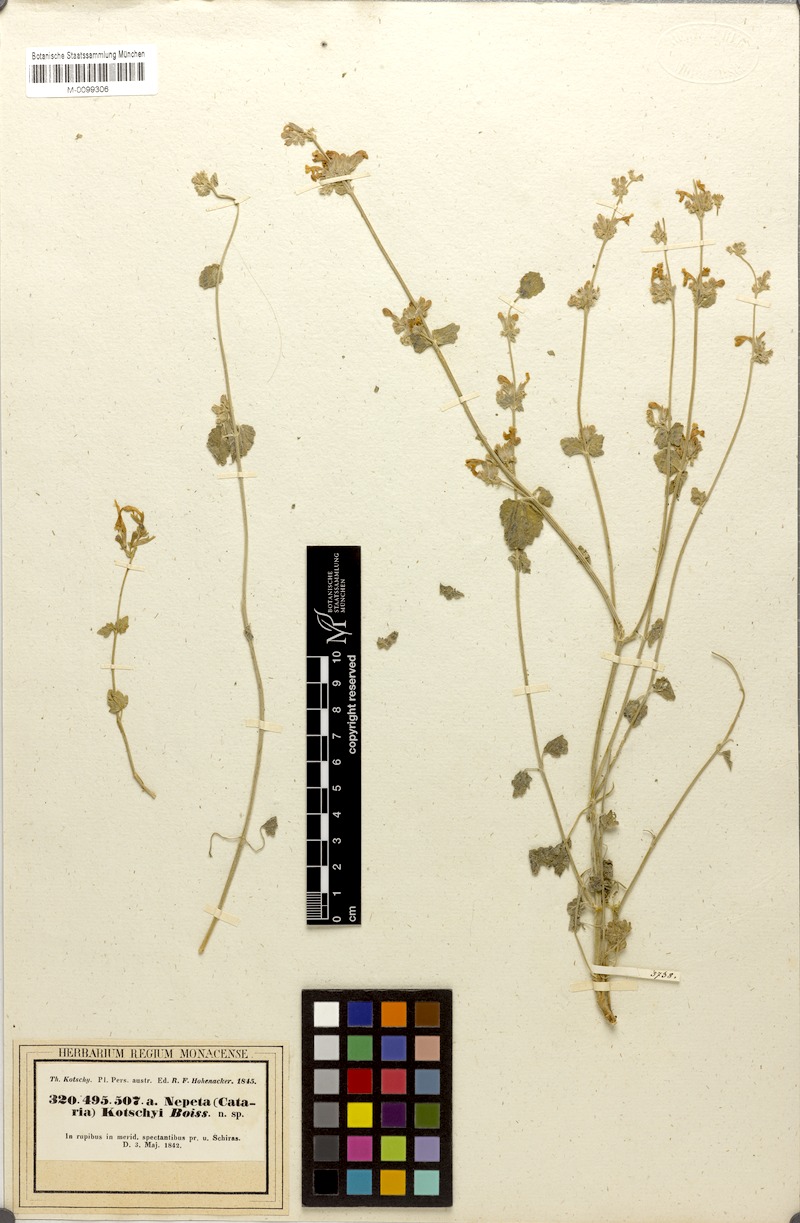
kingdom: Plantae
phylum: Tracheophyta
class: Magnoliopsida
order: Lamiales
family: Lamiaceae
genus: Nepeta
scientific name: Nepeta kotschyi
